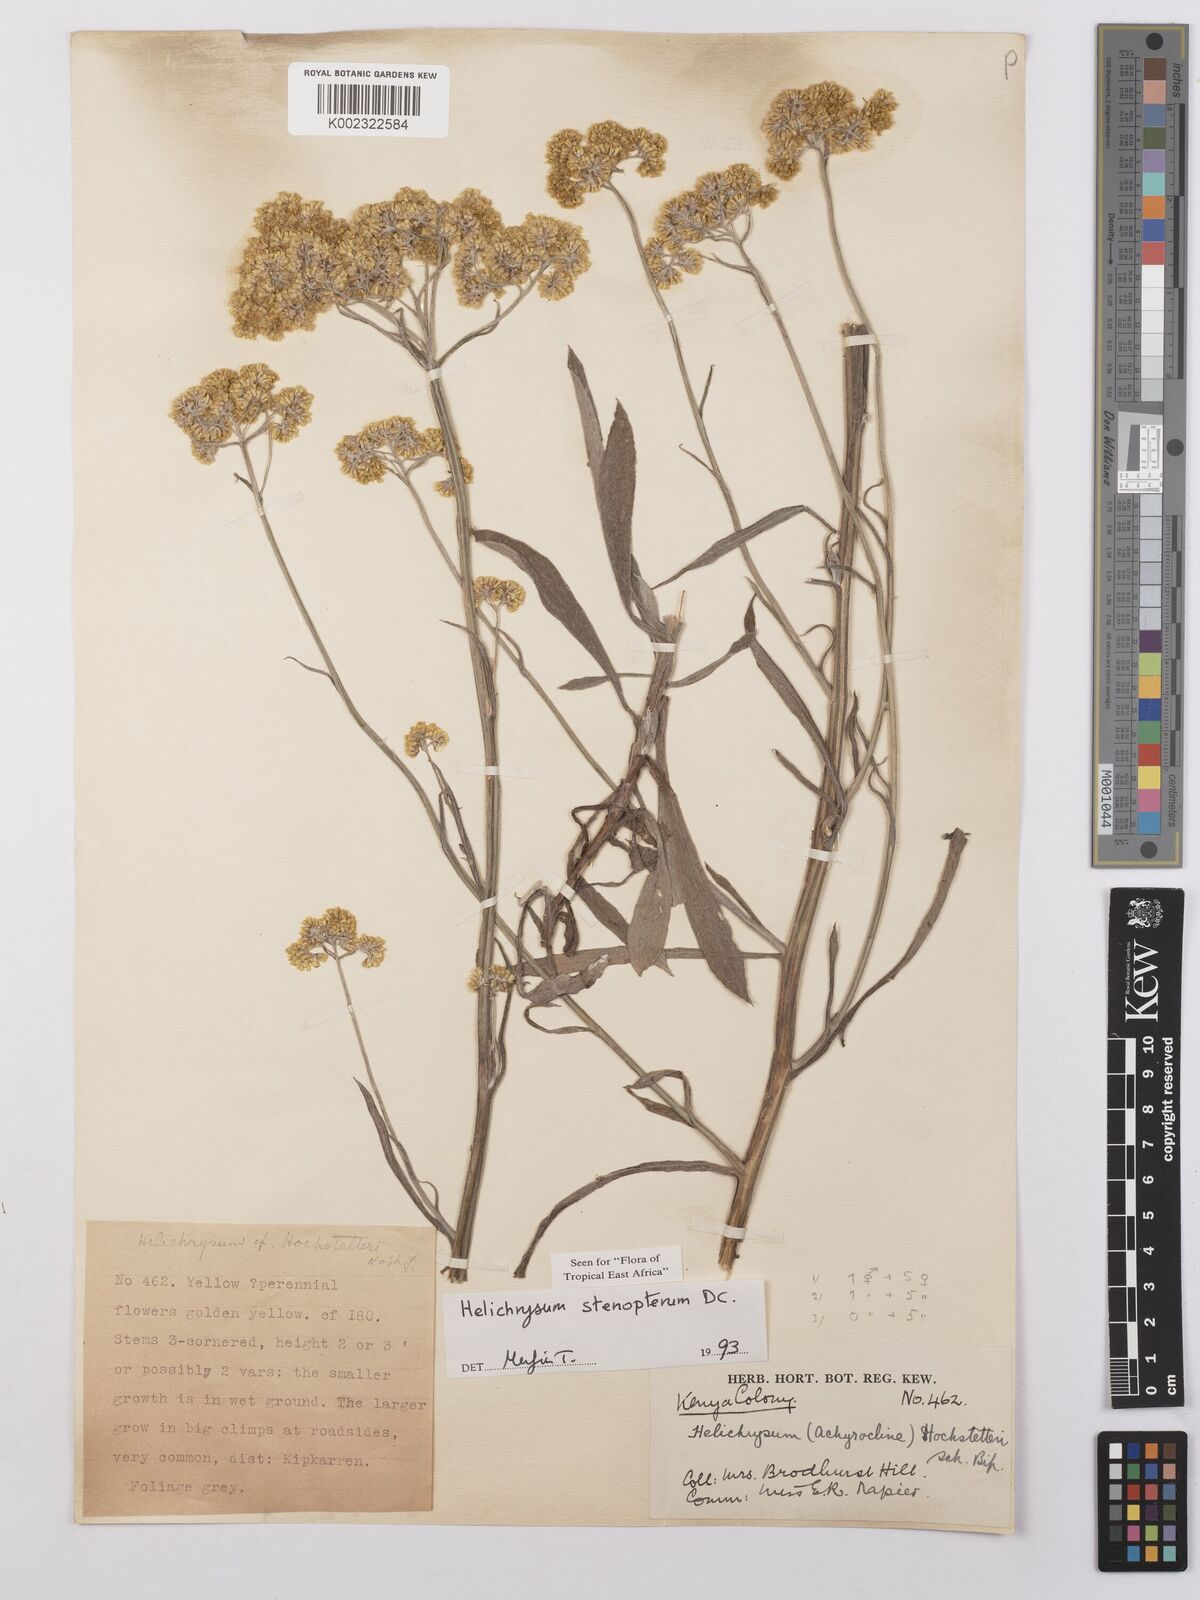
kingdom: Plantae
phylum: Tracheophyta
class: Magnoliopsida
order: Asterales
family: Asteraceae
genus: Helichrysum
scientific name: Helichrysum stenopterum
